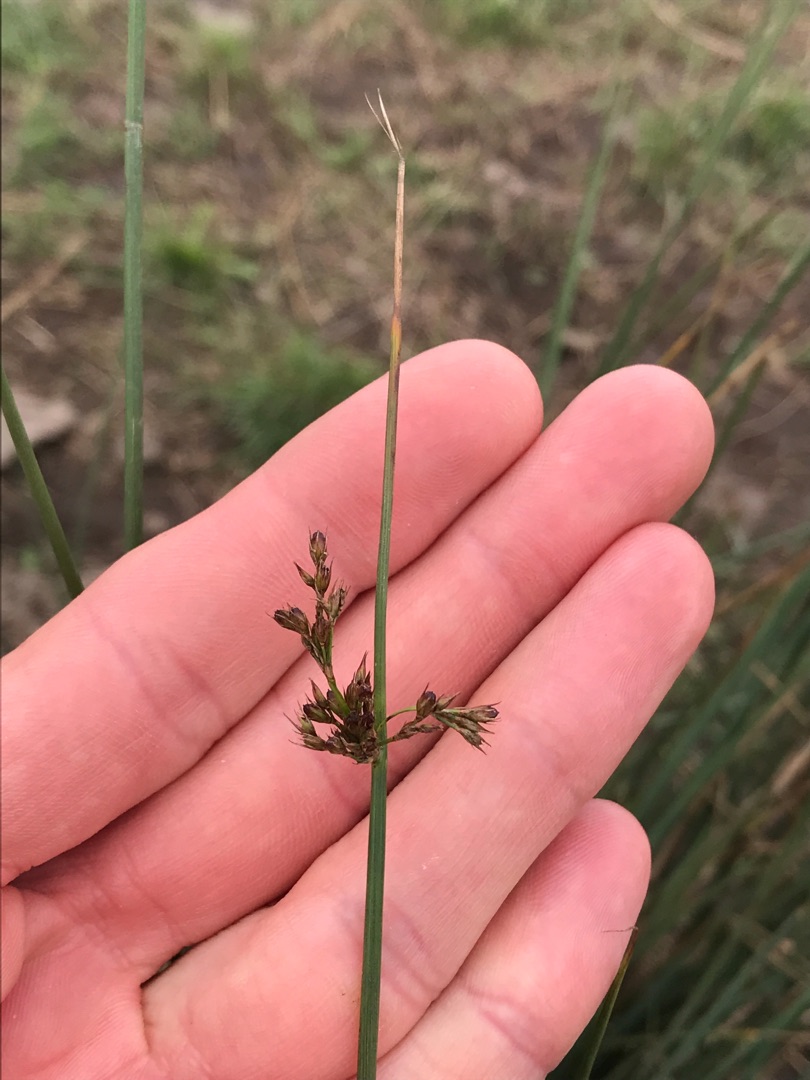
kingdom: Plantae
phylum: Tracheophyta
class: Liliopsida
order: Poales
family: Juncaceae
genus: Juncus
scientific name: Juncus inflexus
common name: Blågrå siv
